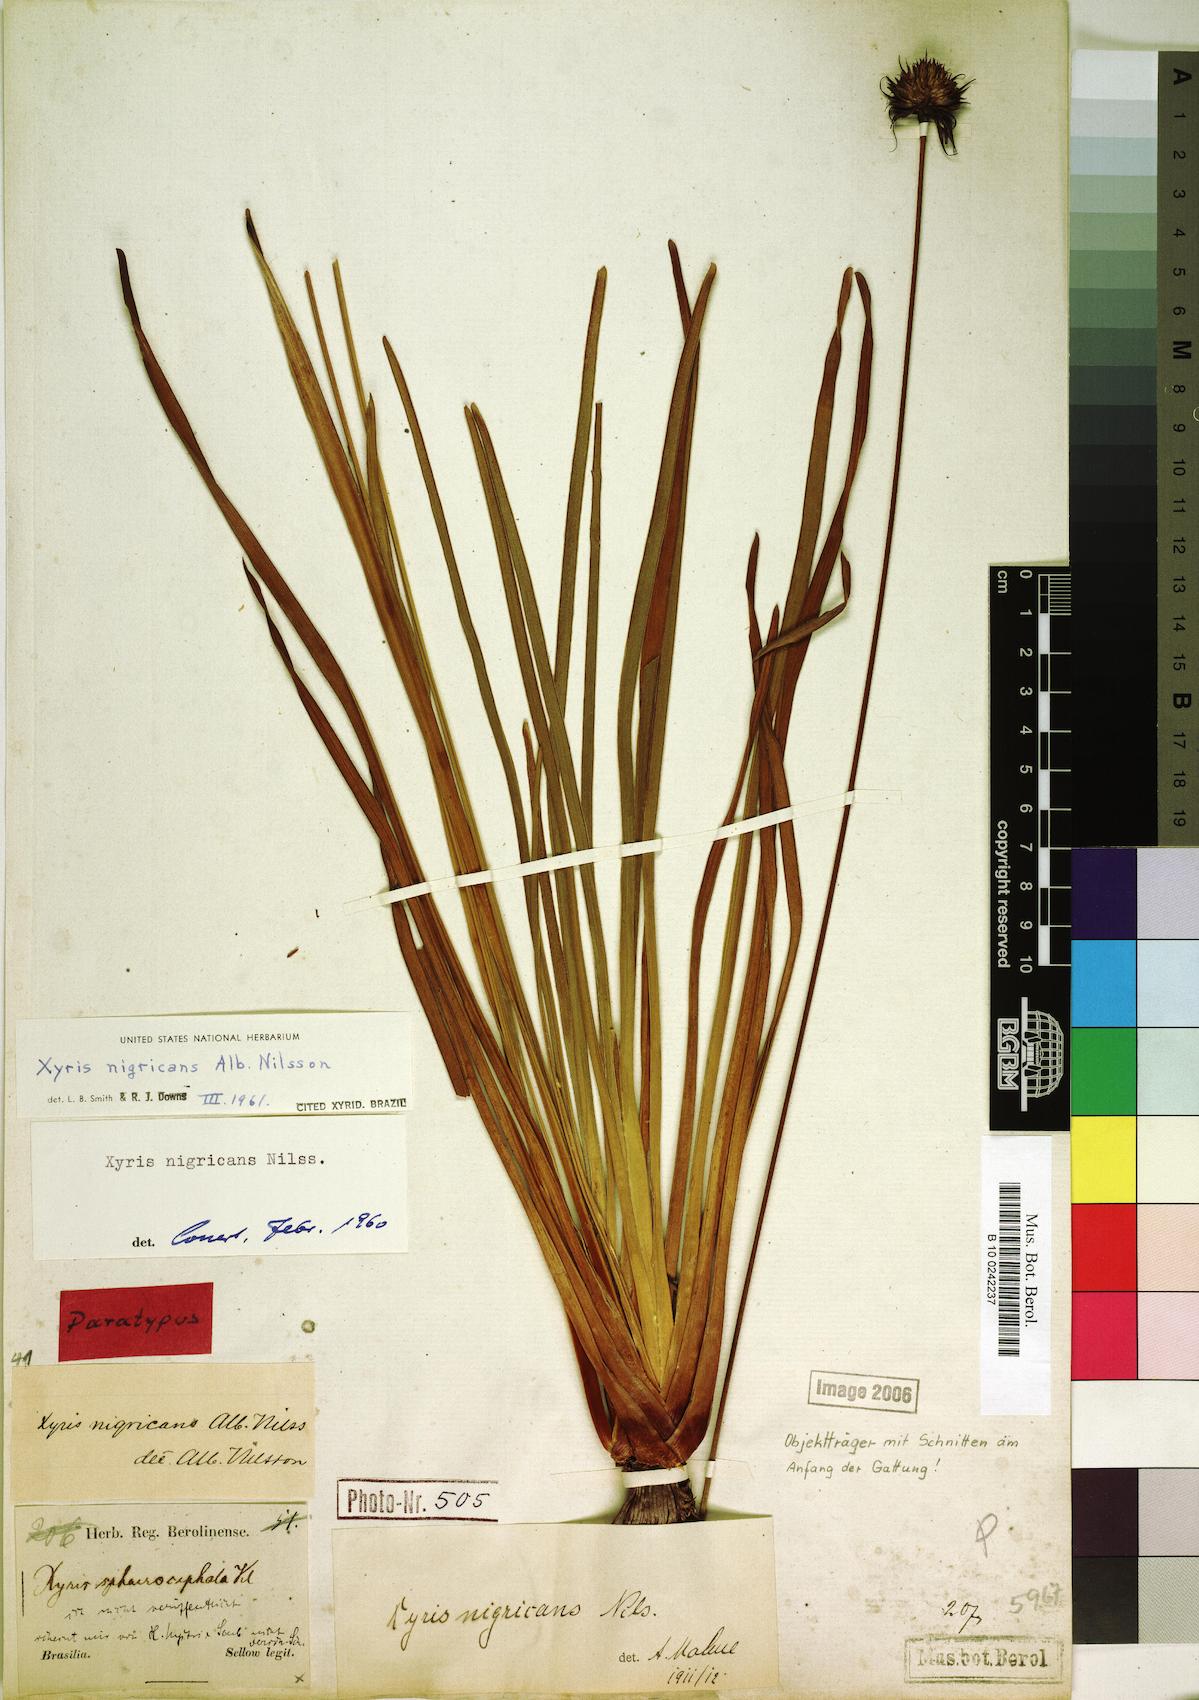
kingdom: Plantae
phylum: Tracheophyta
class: Liliopsida
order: Poales
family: Xyridaceae
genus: Xyris
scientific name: Xyris nigricans
